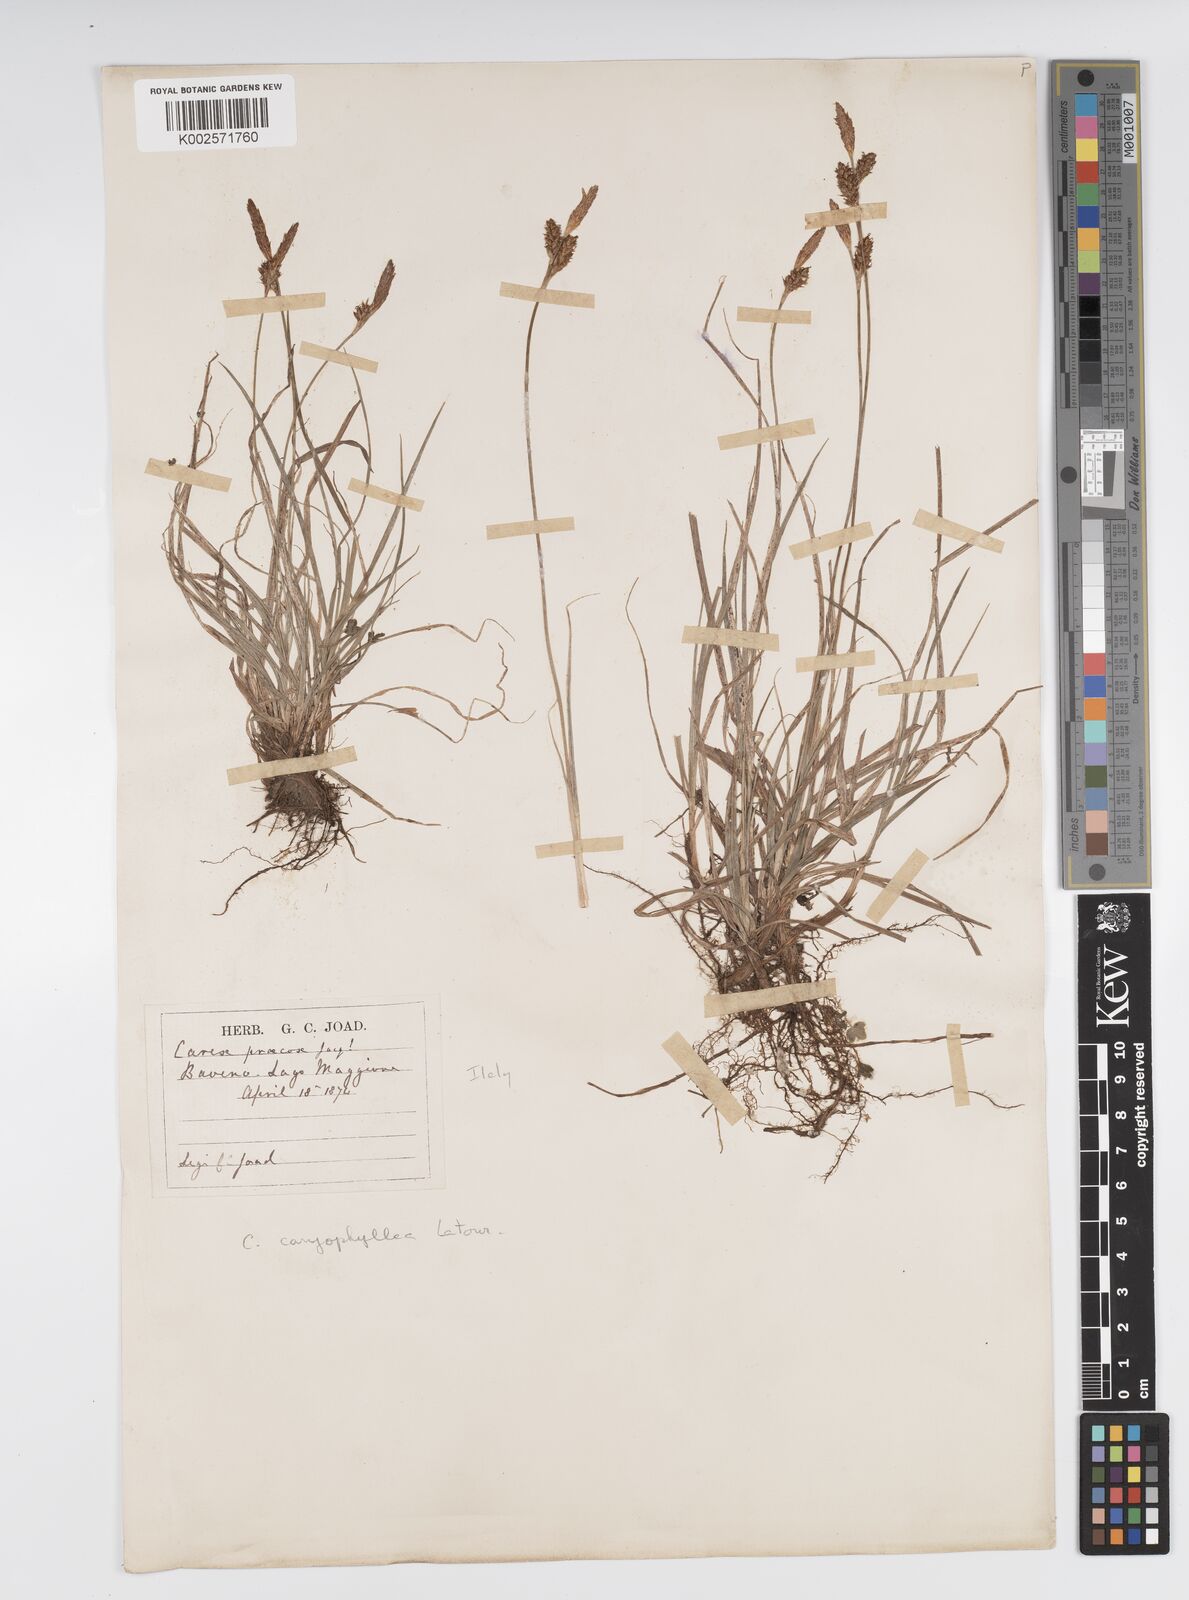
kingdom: Plantae
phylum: Tracheophyta
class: Liliopsida
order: Poales
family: Cyperaceae
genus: Carex
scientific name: Carex caryophyllea
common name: Spring sedge
